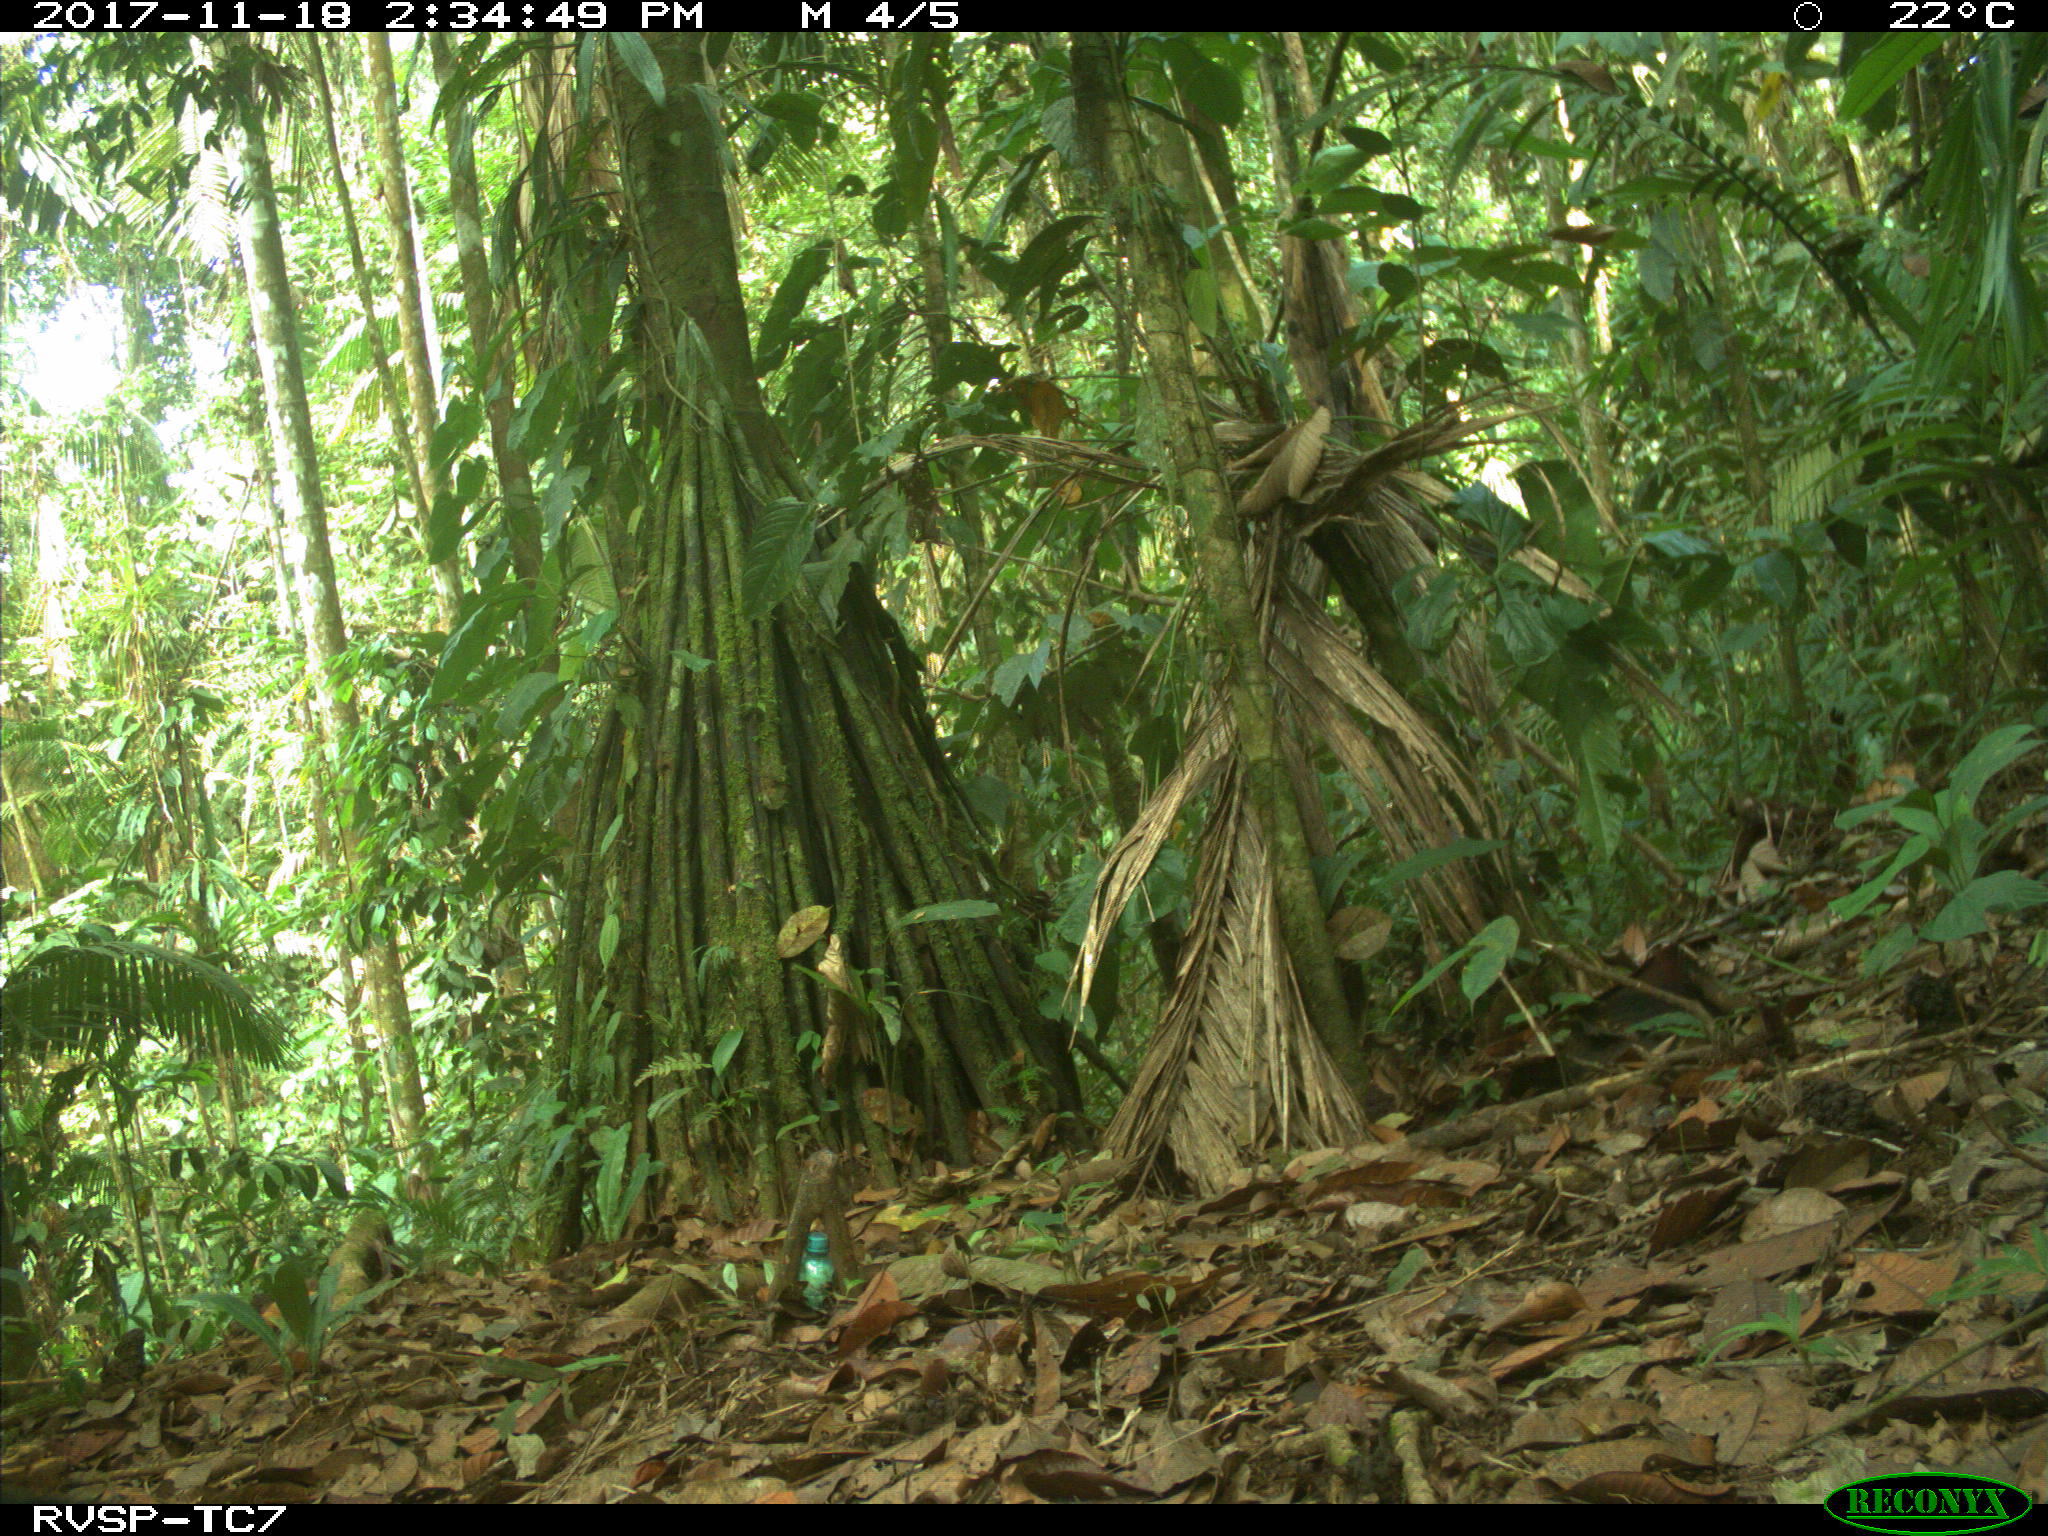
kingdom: Animalia
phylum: Chordata
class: Mammalia
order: Carnivora
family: Mustelidae
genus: Eira
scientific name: Eira barbara
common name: Tayra
